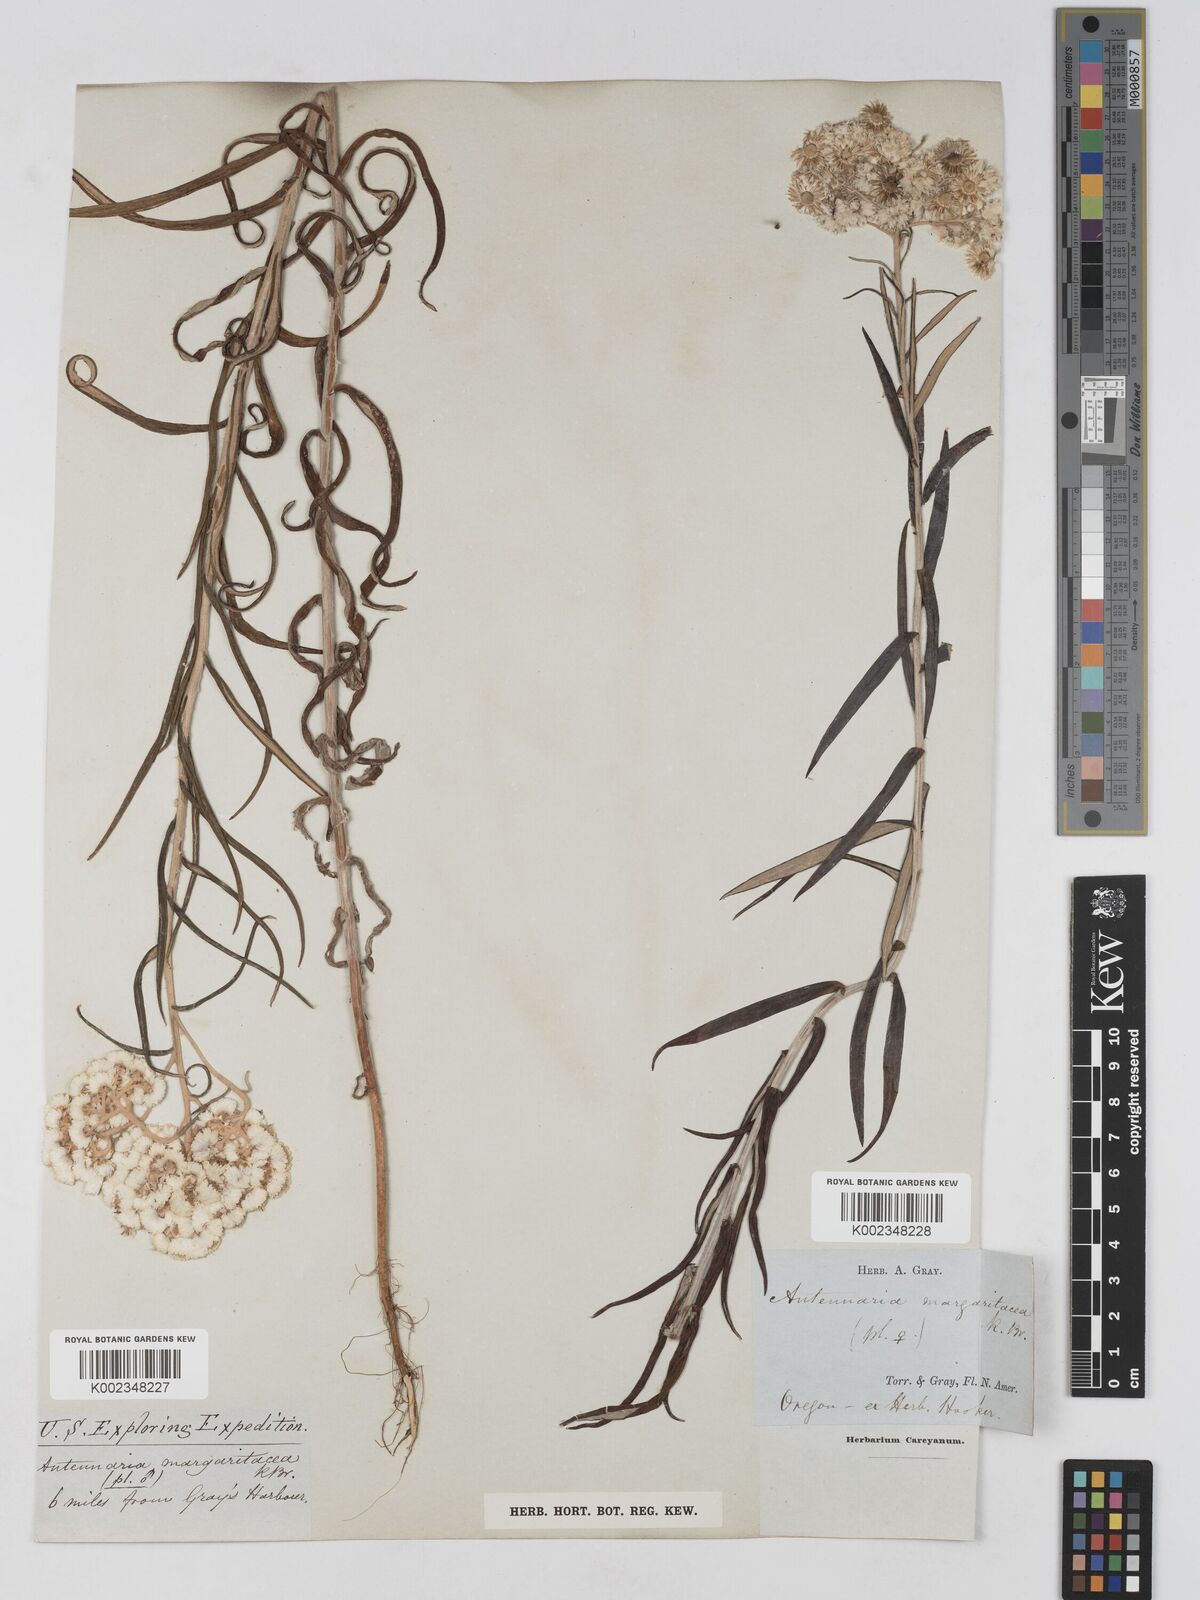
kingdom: Plantae
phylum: Tracheophyta
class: Magnoliopsida
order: Asterales
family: Asteraceae
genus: Anaphalis
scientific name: Anaphalis margaritacea
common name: Pearly everlasting
